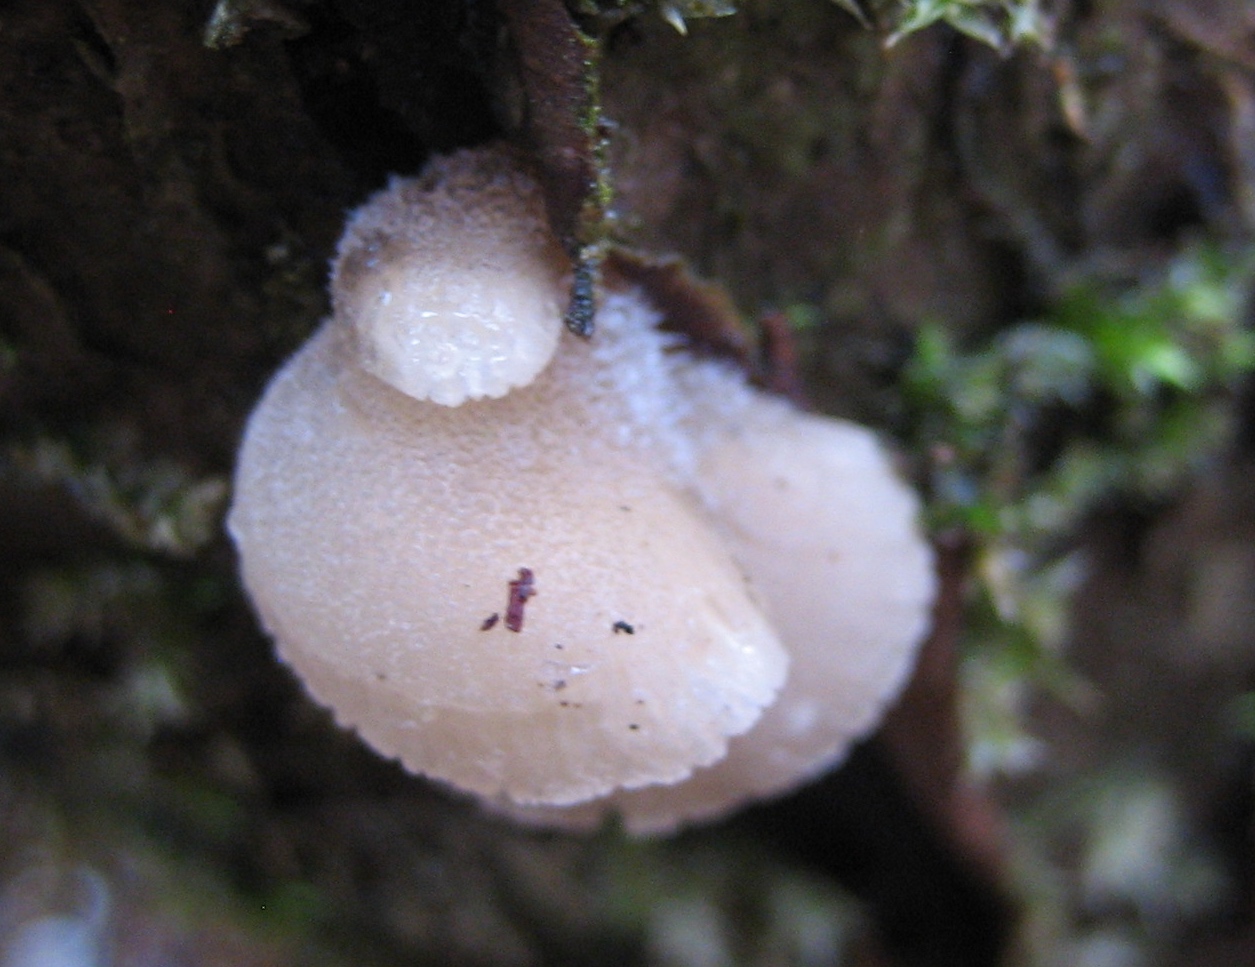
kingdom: Fungi
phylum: Basidiomycota
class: Agaricomycetes
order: Agaricales
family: Pleurotaceae
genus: Hohenbuehelia
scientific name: Hohenbuehelia
